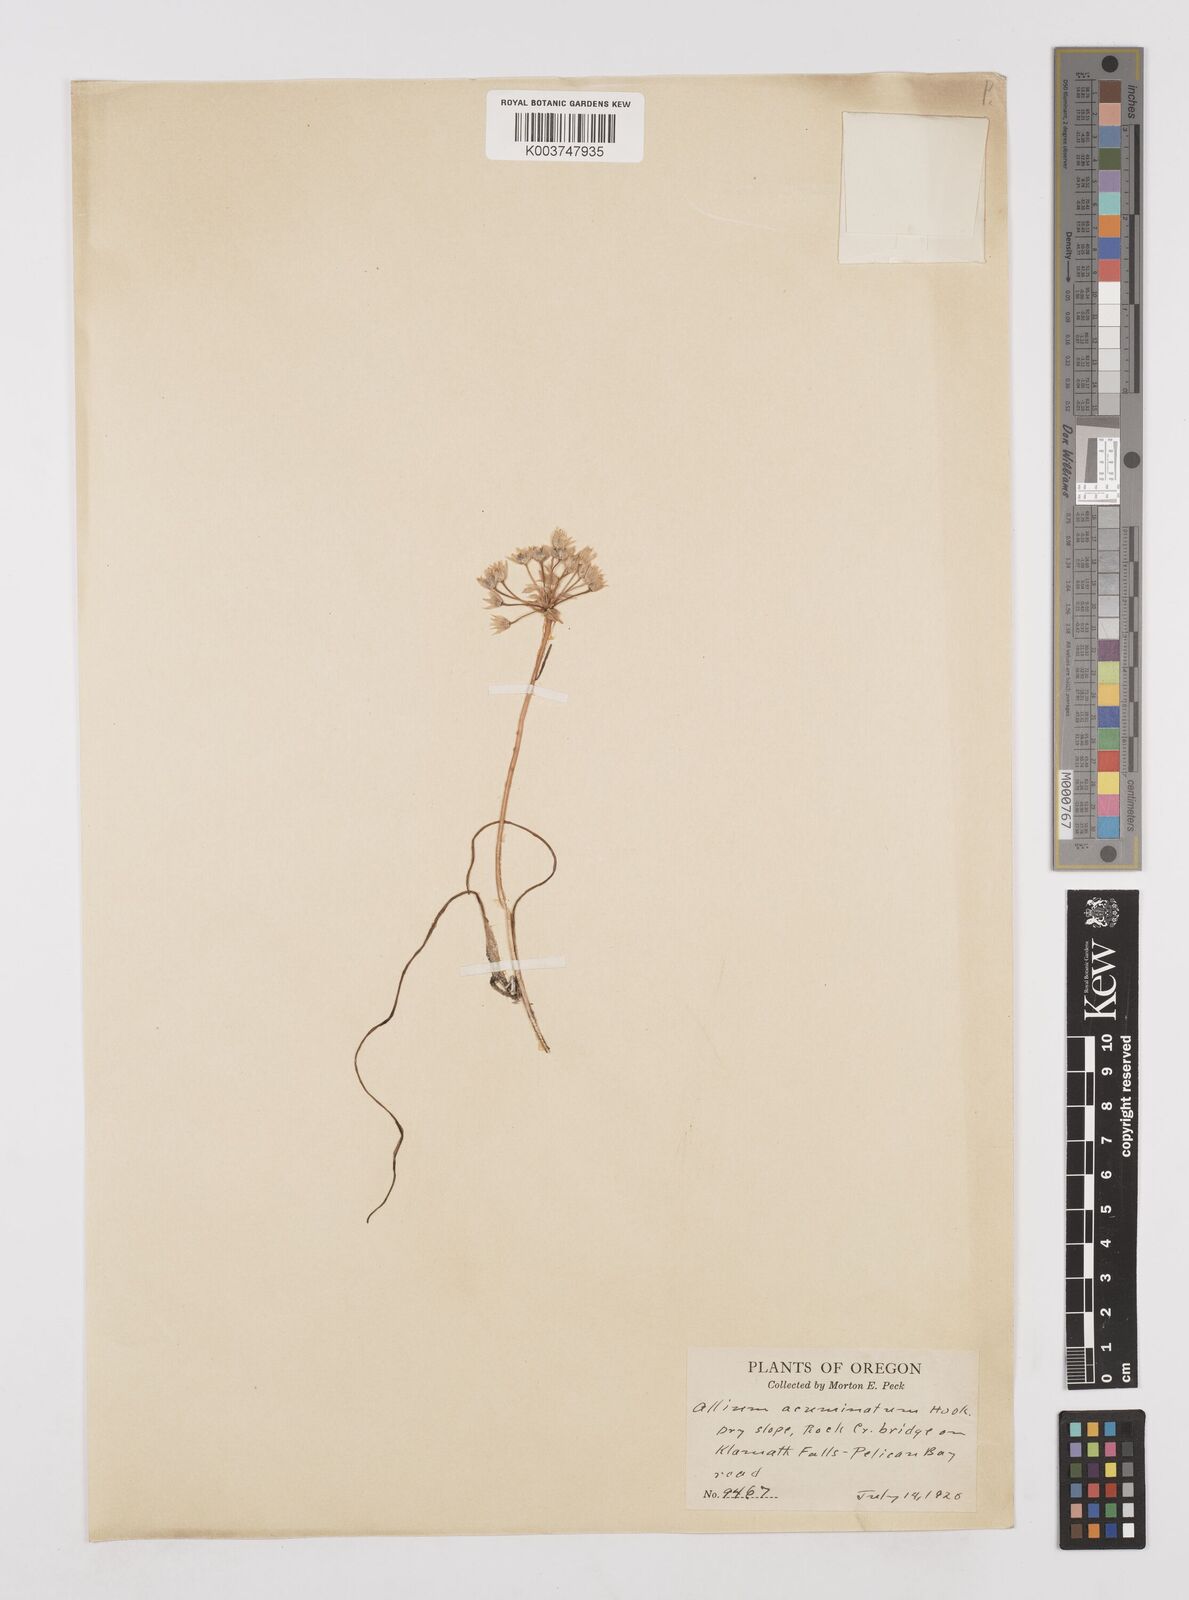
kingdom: Plantae
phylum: Tracheophyta
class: Liliopsida
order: Asparagales
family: Amaryllidaceae
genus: Allium
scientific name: Allium acuminatum
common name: Hooker's onion
